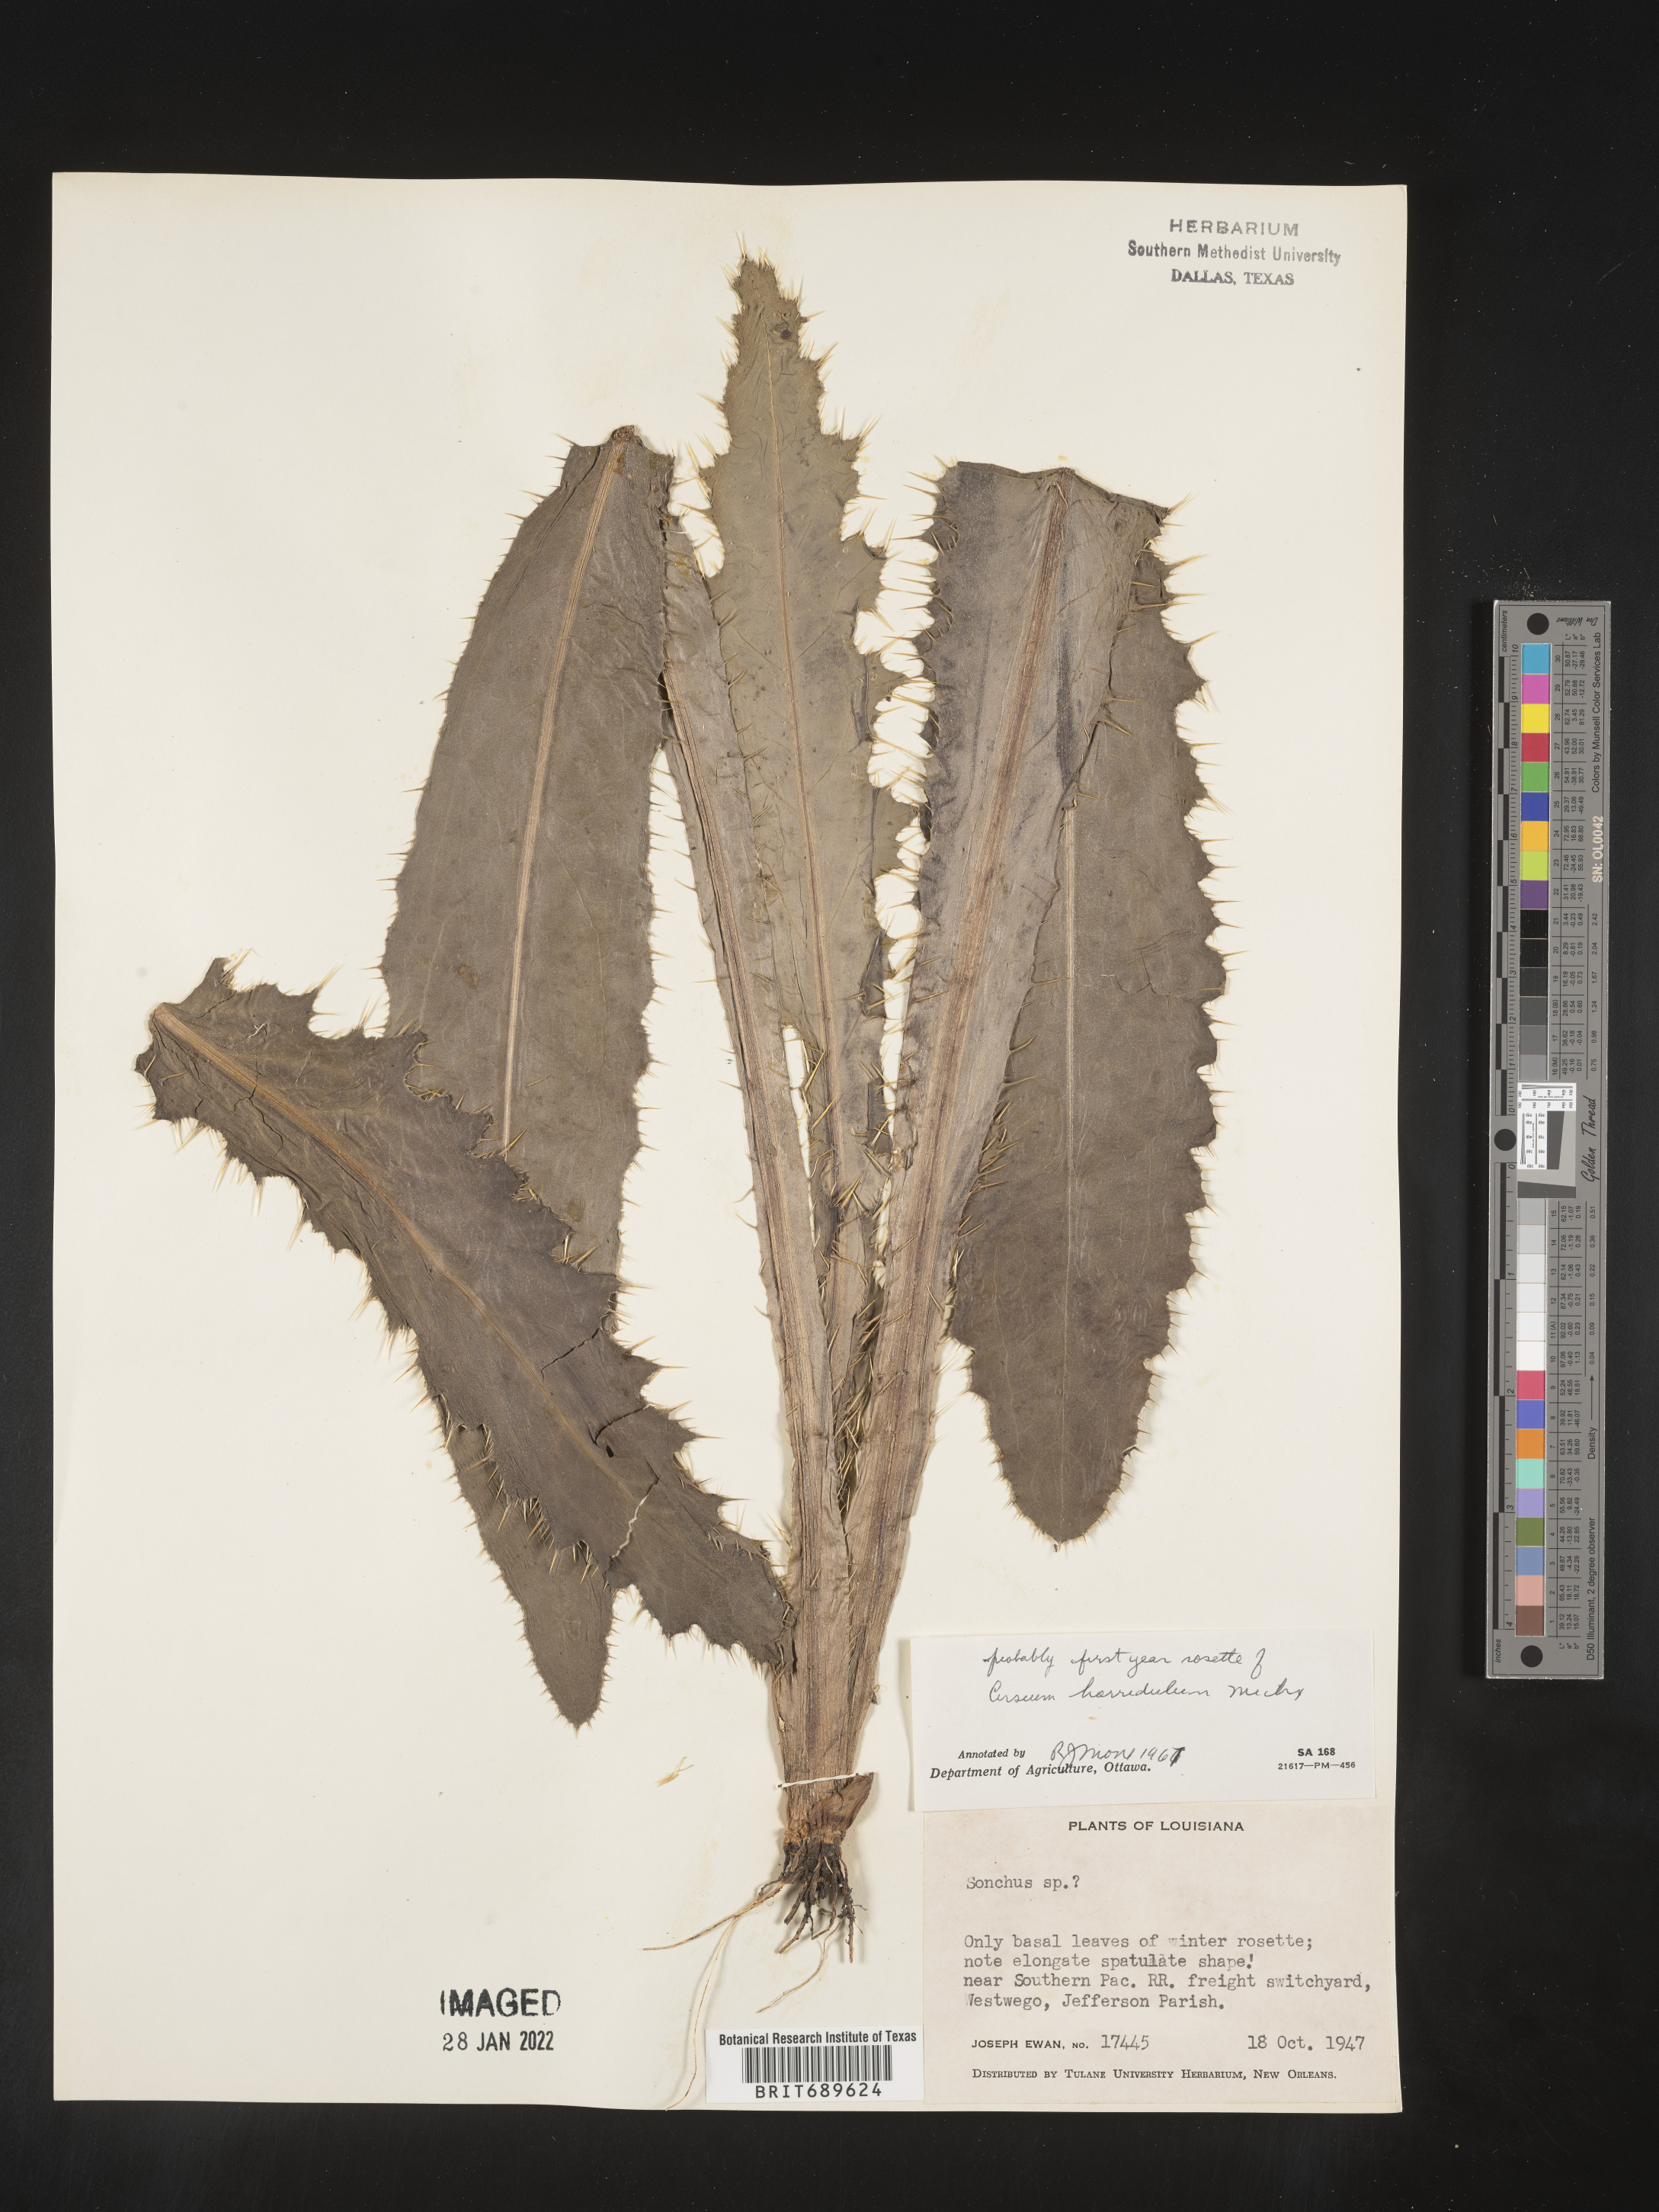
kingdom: Plantae
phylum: Tracheophyta
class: Magnoliopsida
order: Asterales
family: Asteraceae
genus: Cirsium
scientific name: Cirsium horridulum
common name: Bristly thistle
